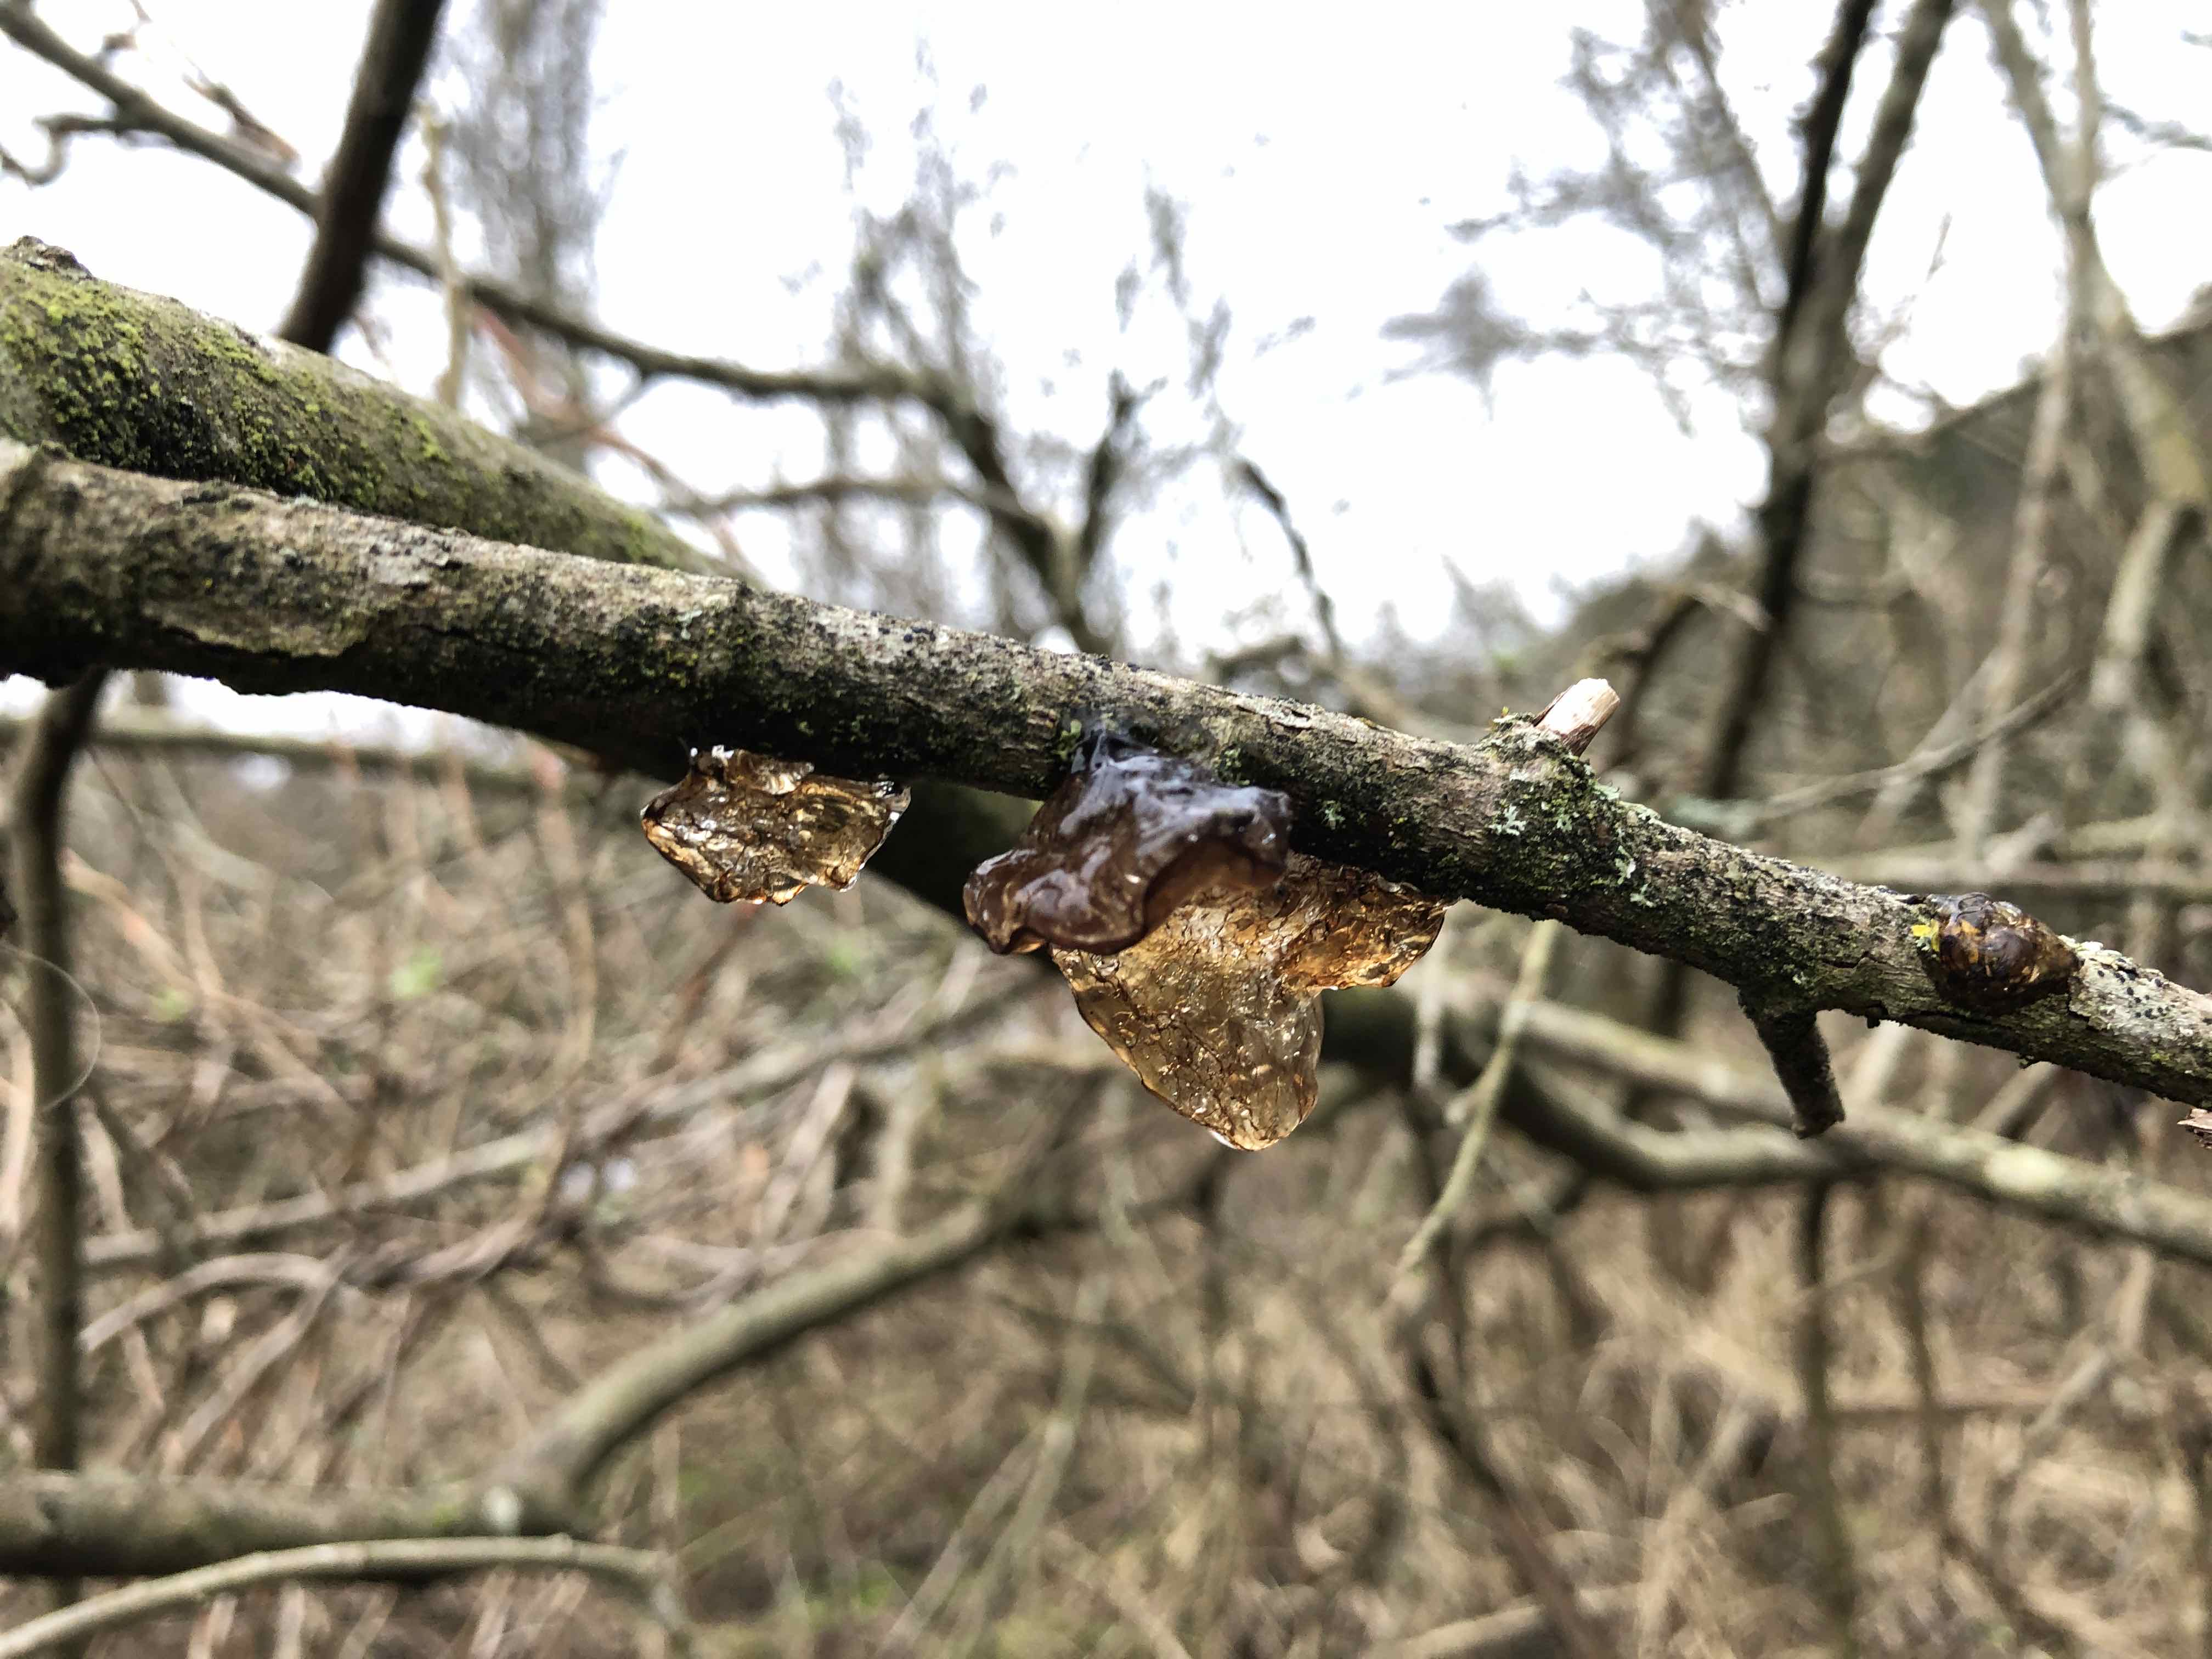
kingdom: Fungi
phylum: Basidiomycota
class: Agaricomycetes
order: Auriculariales
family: Auriculariaceae
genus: Exidia
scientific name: Exidia recisa
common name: pile-bævretop
